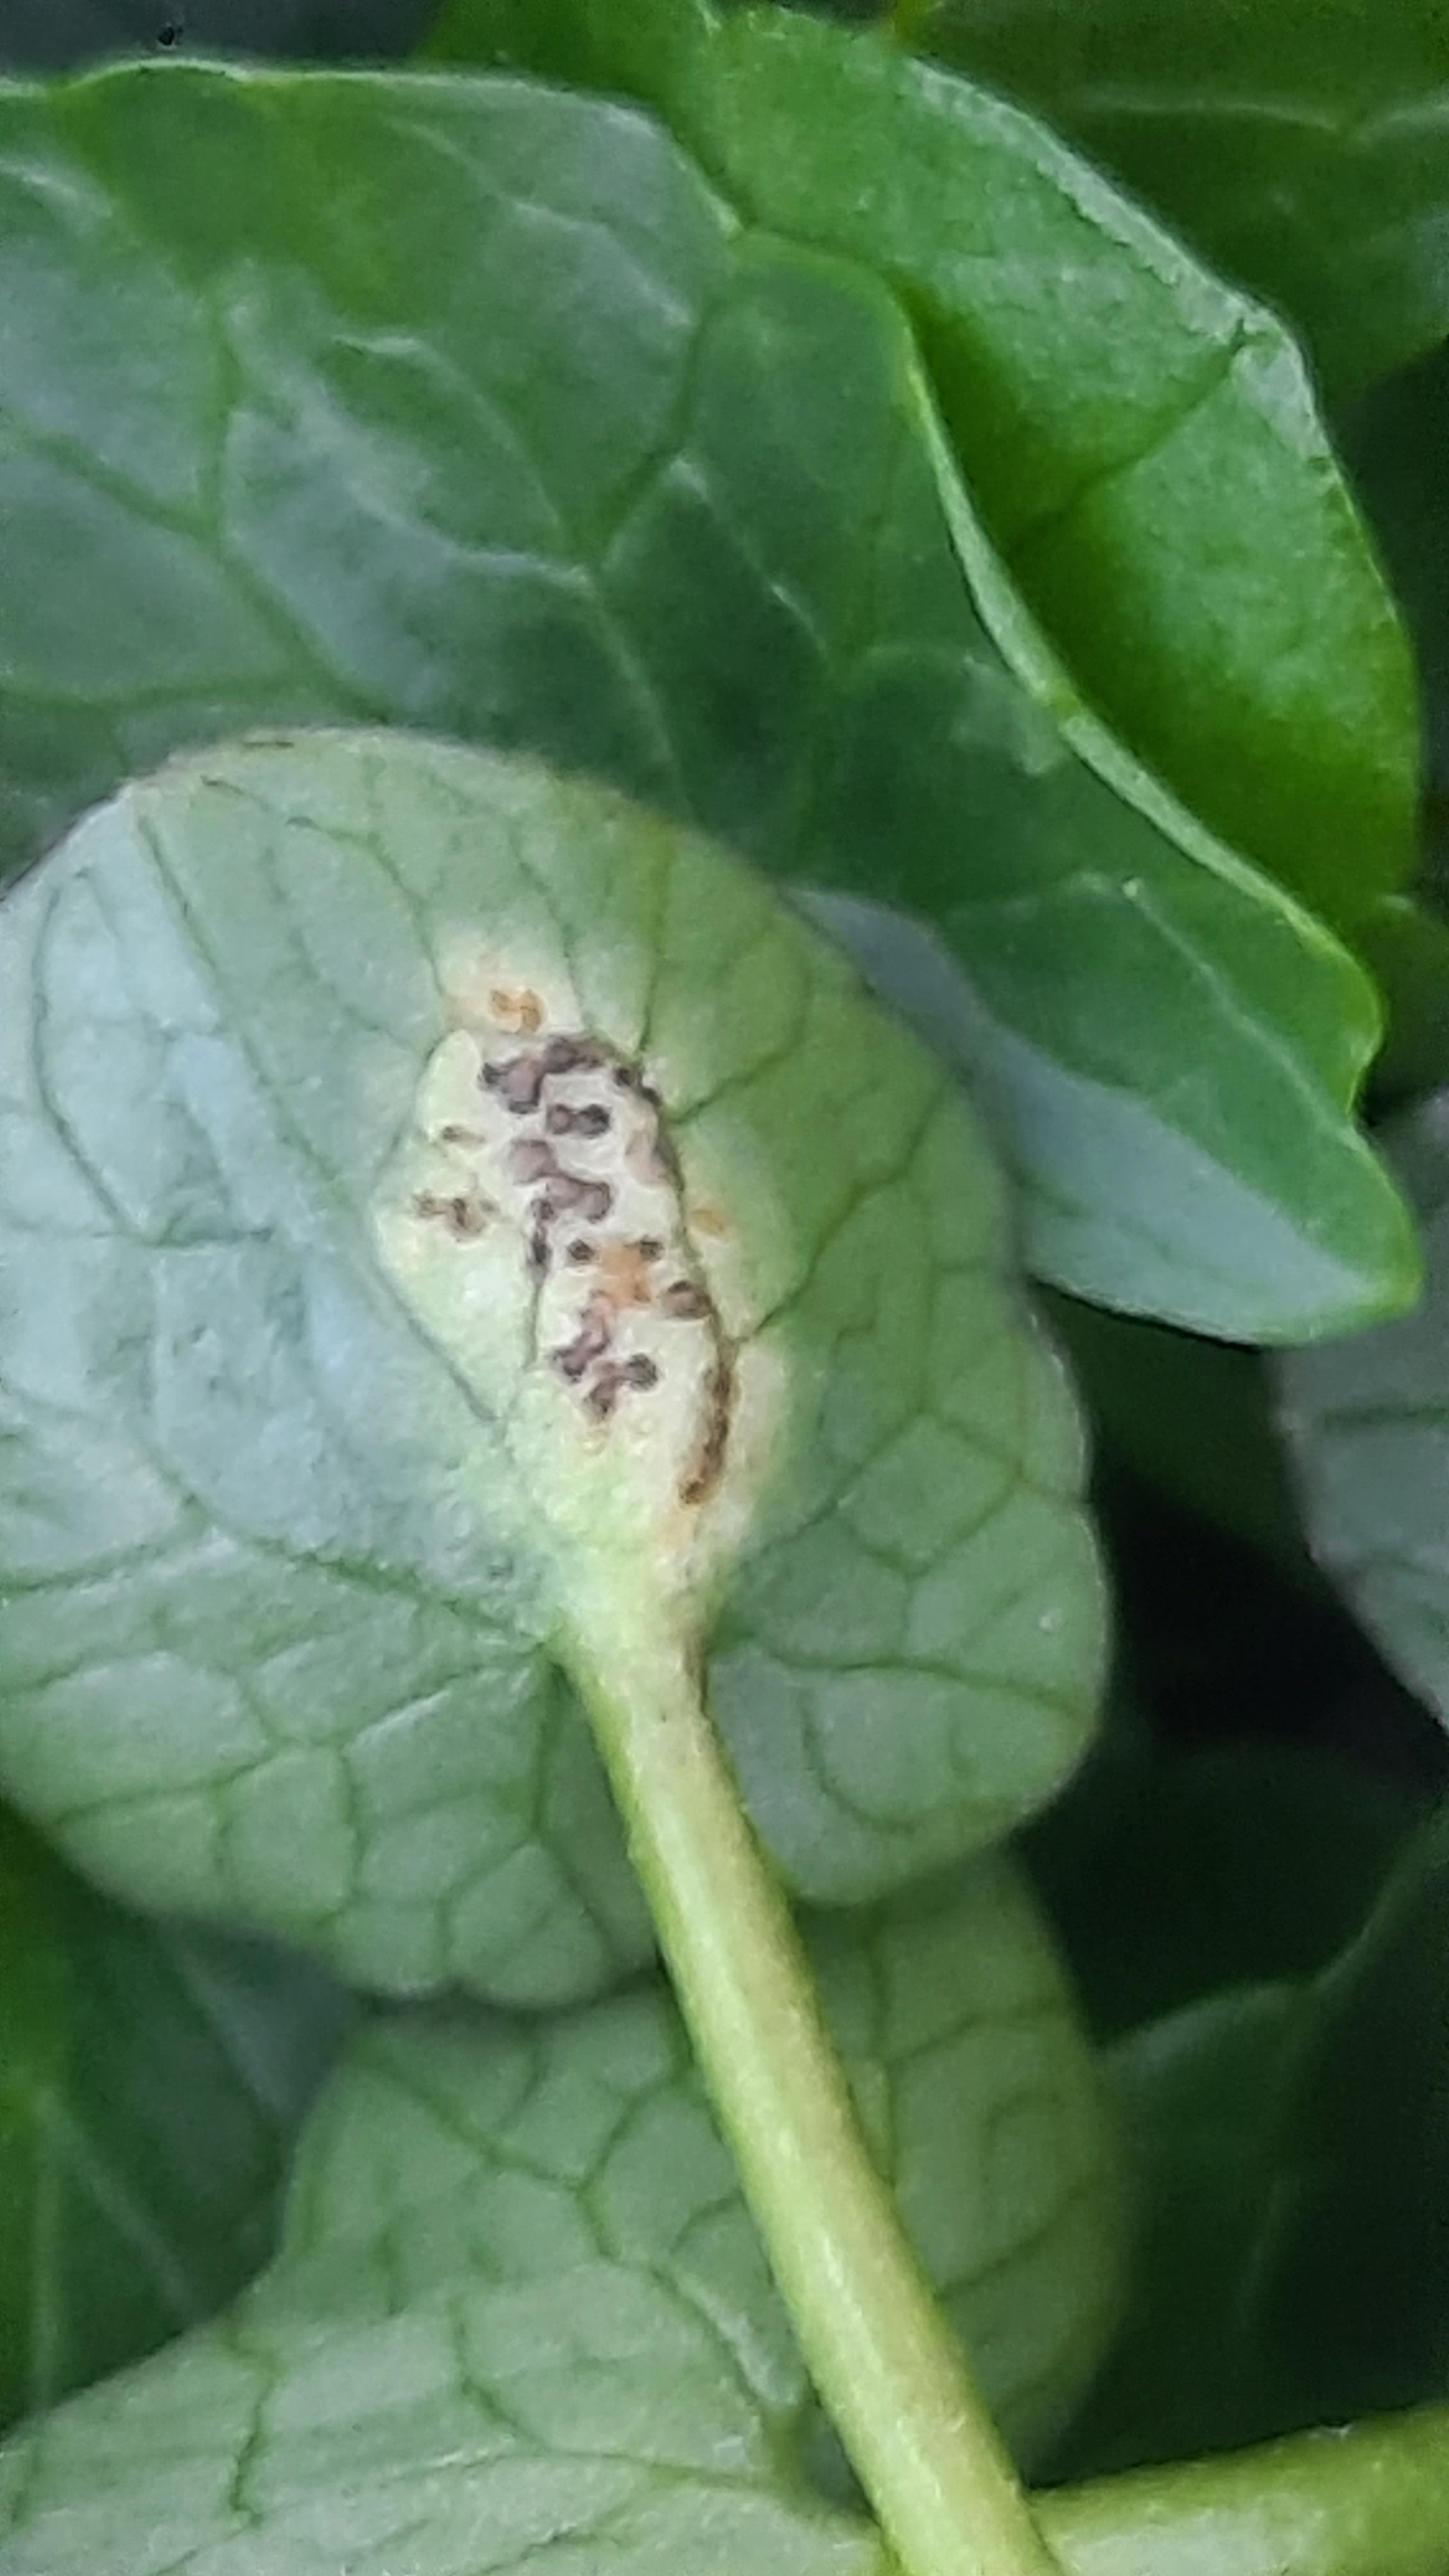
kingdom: Fungi
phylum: Basidiomycota
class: Pucciniomycetes
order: Pucciniales
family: Pucciniaceae
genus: Uromyces
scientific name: Uromyces ficariae
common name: vorterod-encellerust
